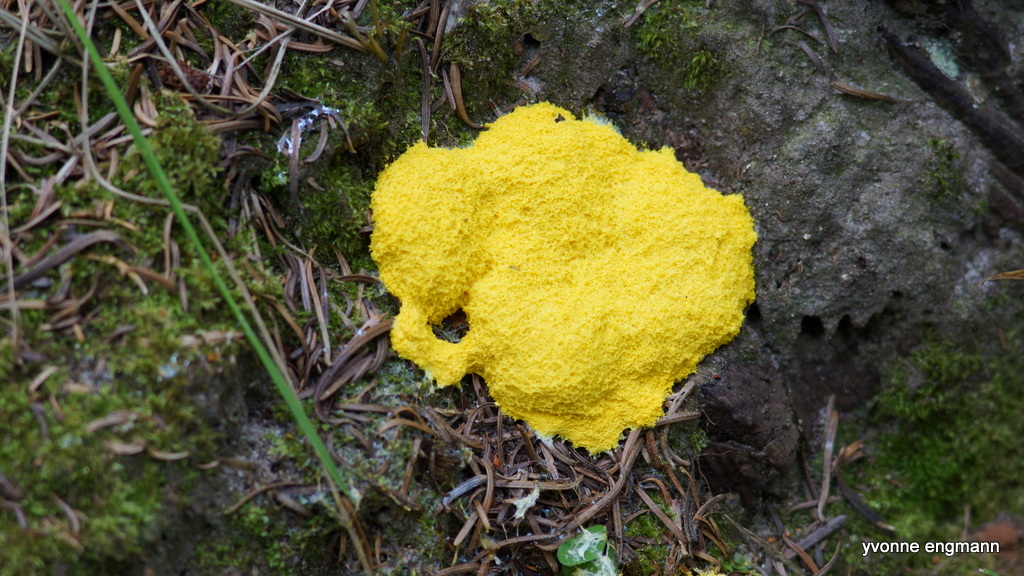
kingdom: Protozoa
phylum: Mycetozoa
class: Myxomycetes
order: Physarales
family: Physaraceae
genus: Fuligo
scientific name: Fuligo septica
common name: gul troldsmør
